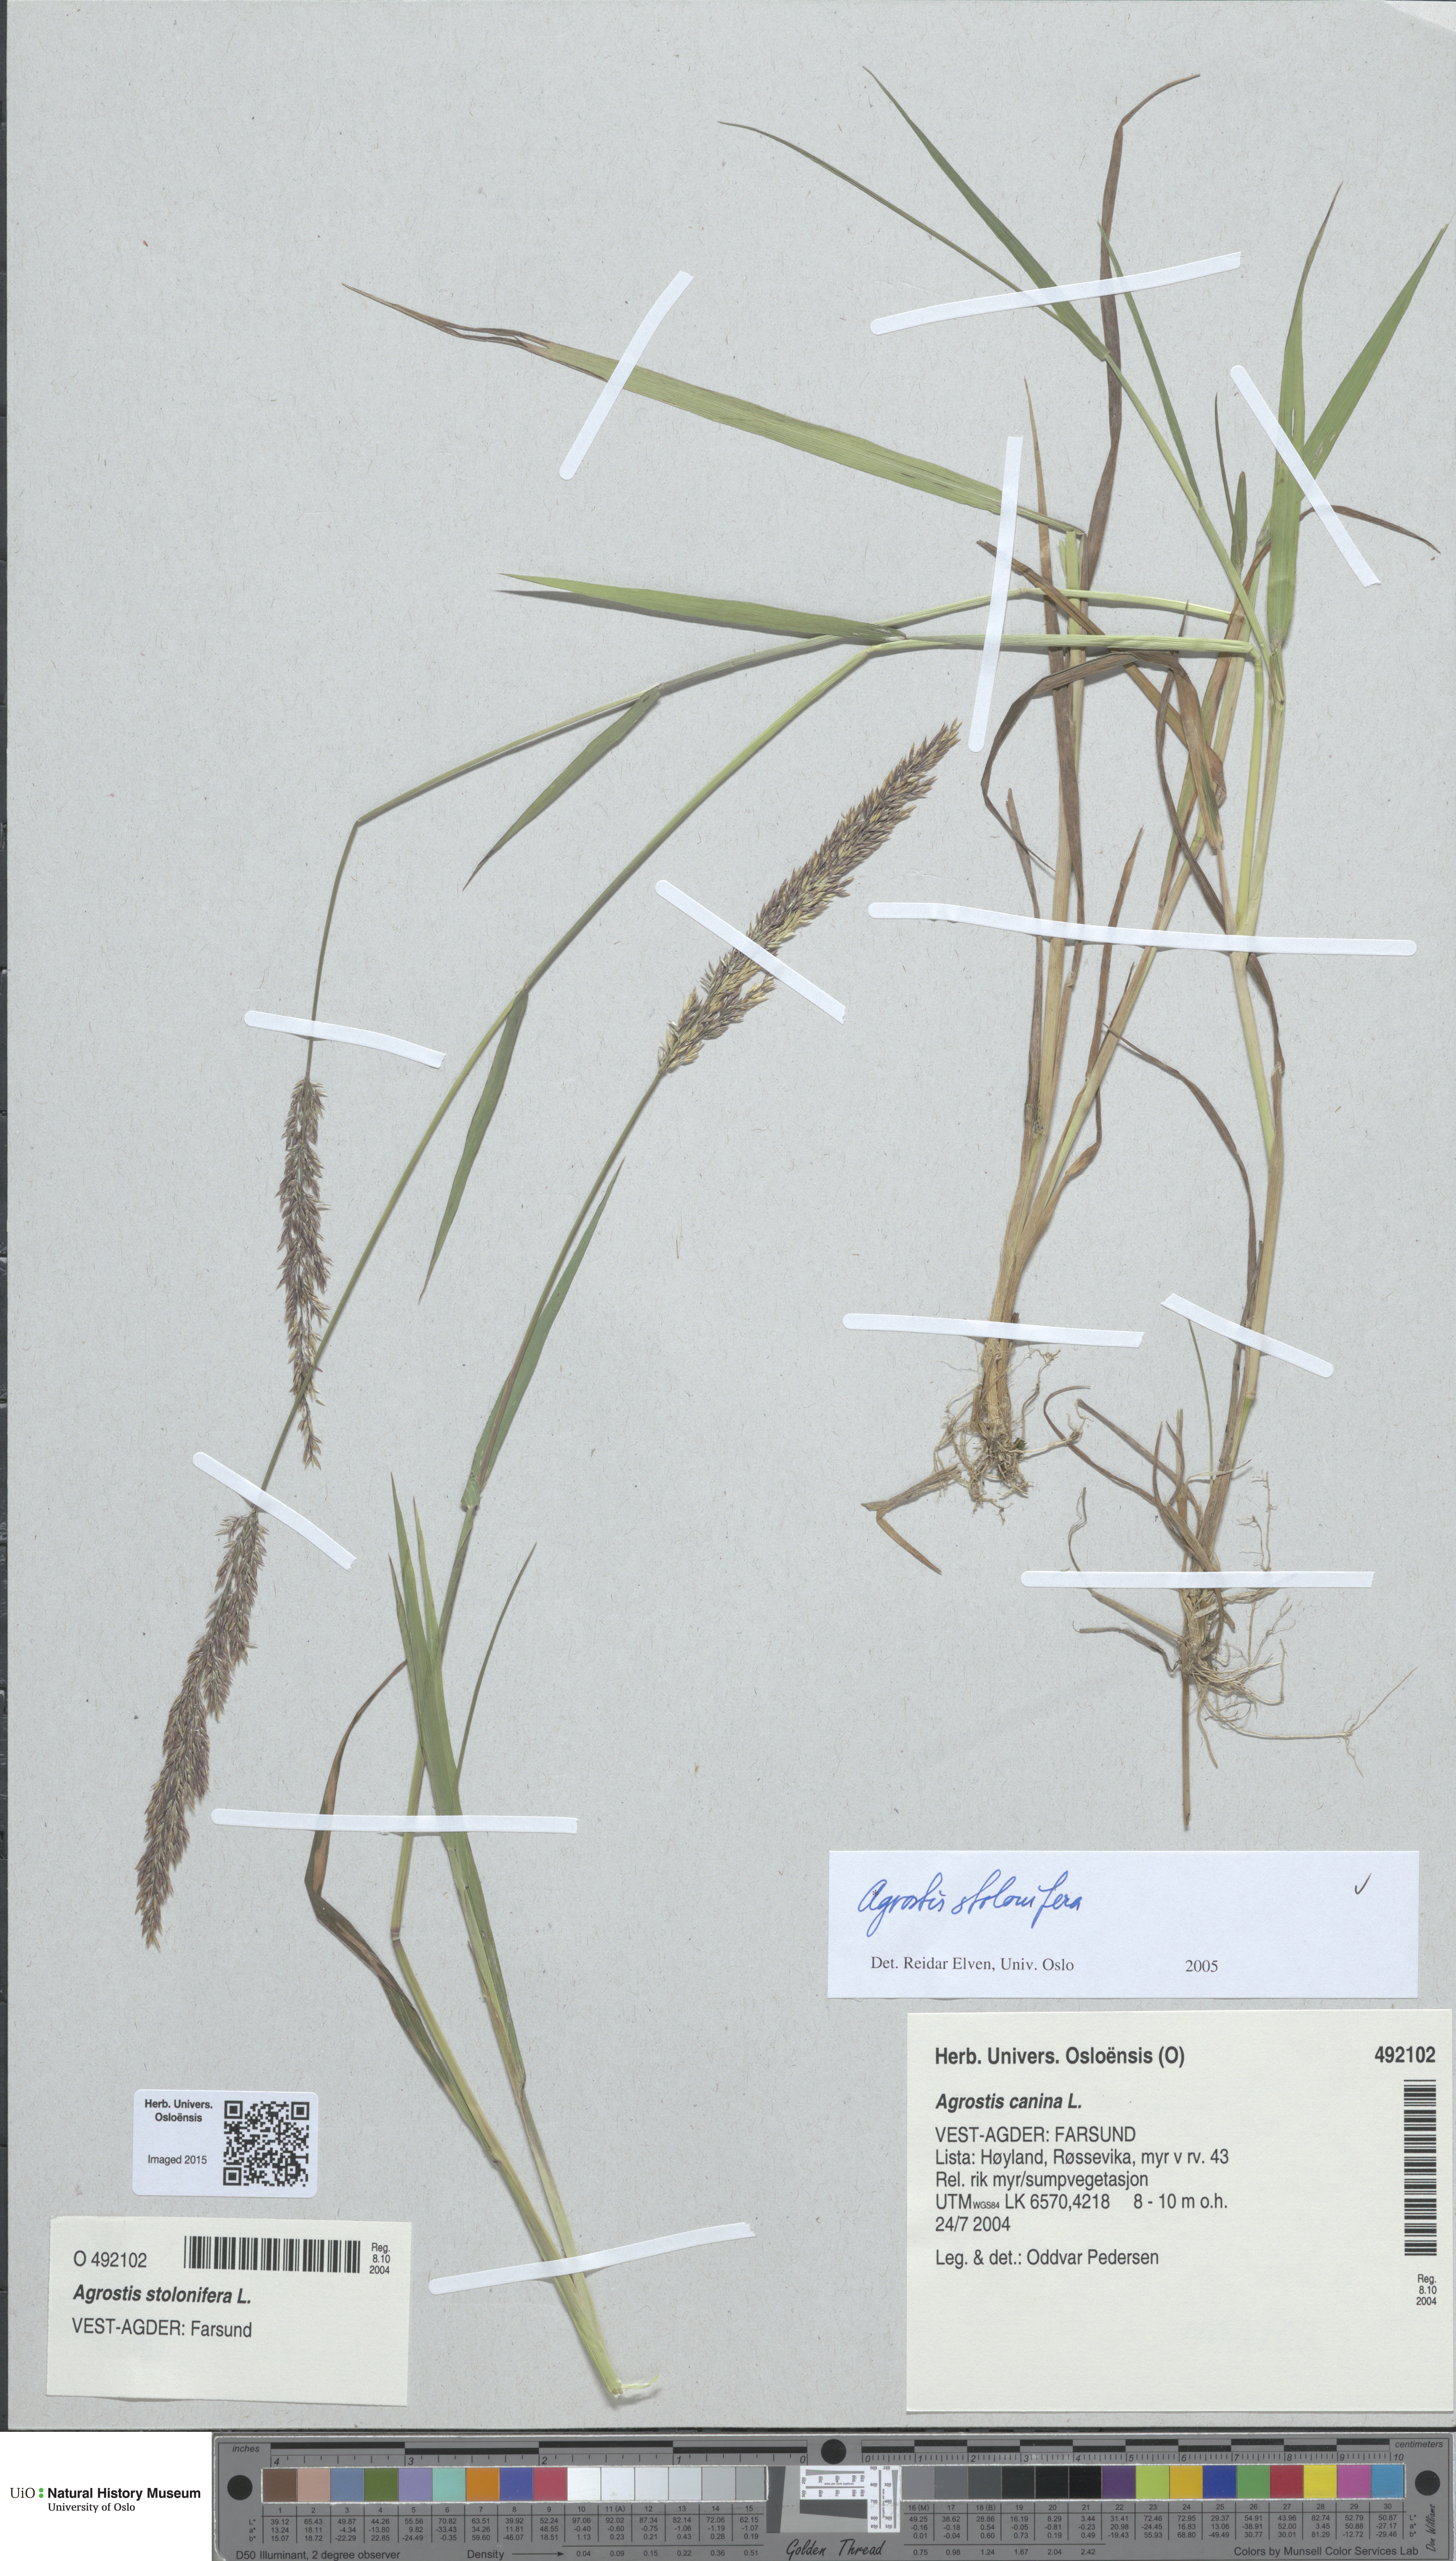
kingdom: Plantae
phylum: Tracheophyta
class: Liliopsida
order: Poales
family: Poaceae
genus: Agrostis
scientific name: Agrostis stolonifera
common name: Creeping bentgrass
